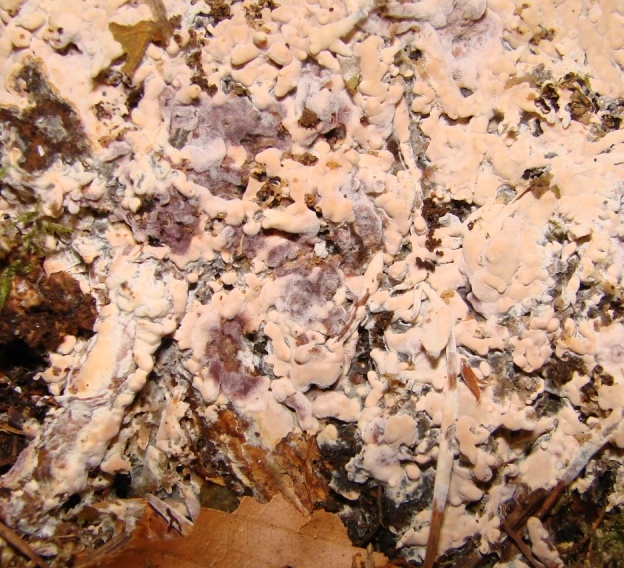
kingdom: Fungi
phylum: Basidiomycota
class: Agaricomycetes
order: Russulales
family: Peniophoraceae
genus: Gloiothele
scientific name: Gloiothele lactescens
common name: bitter olieskind
